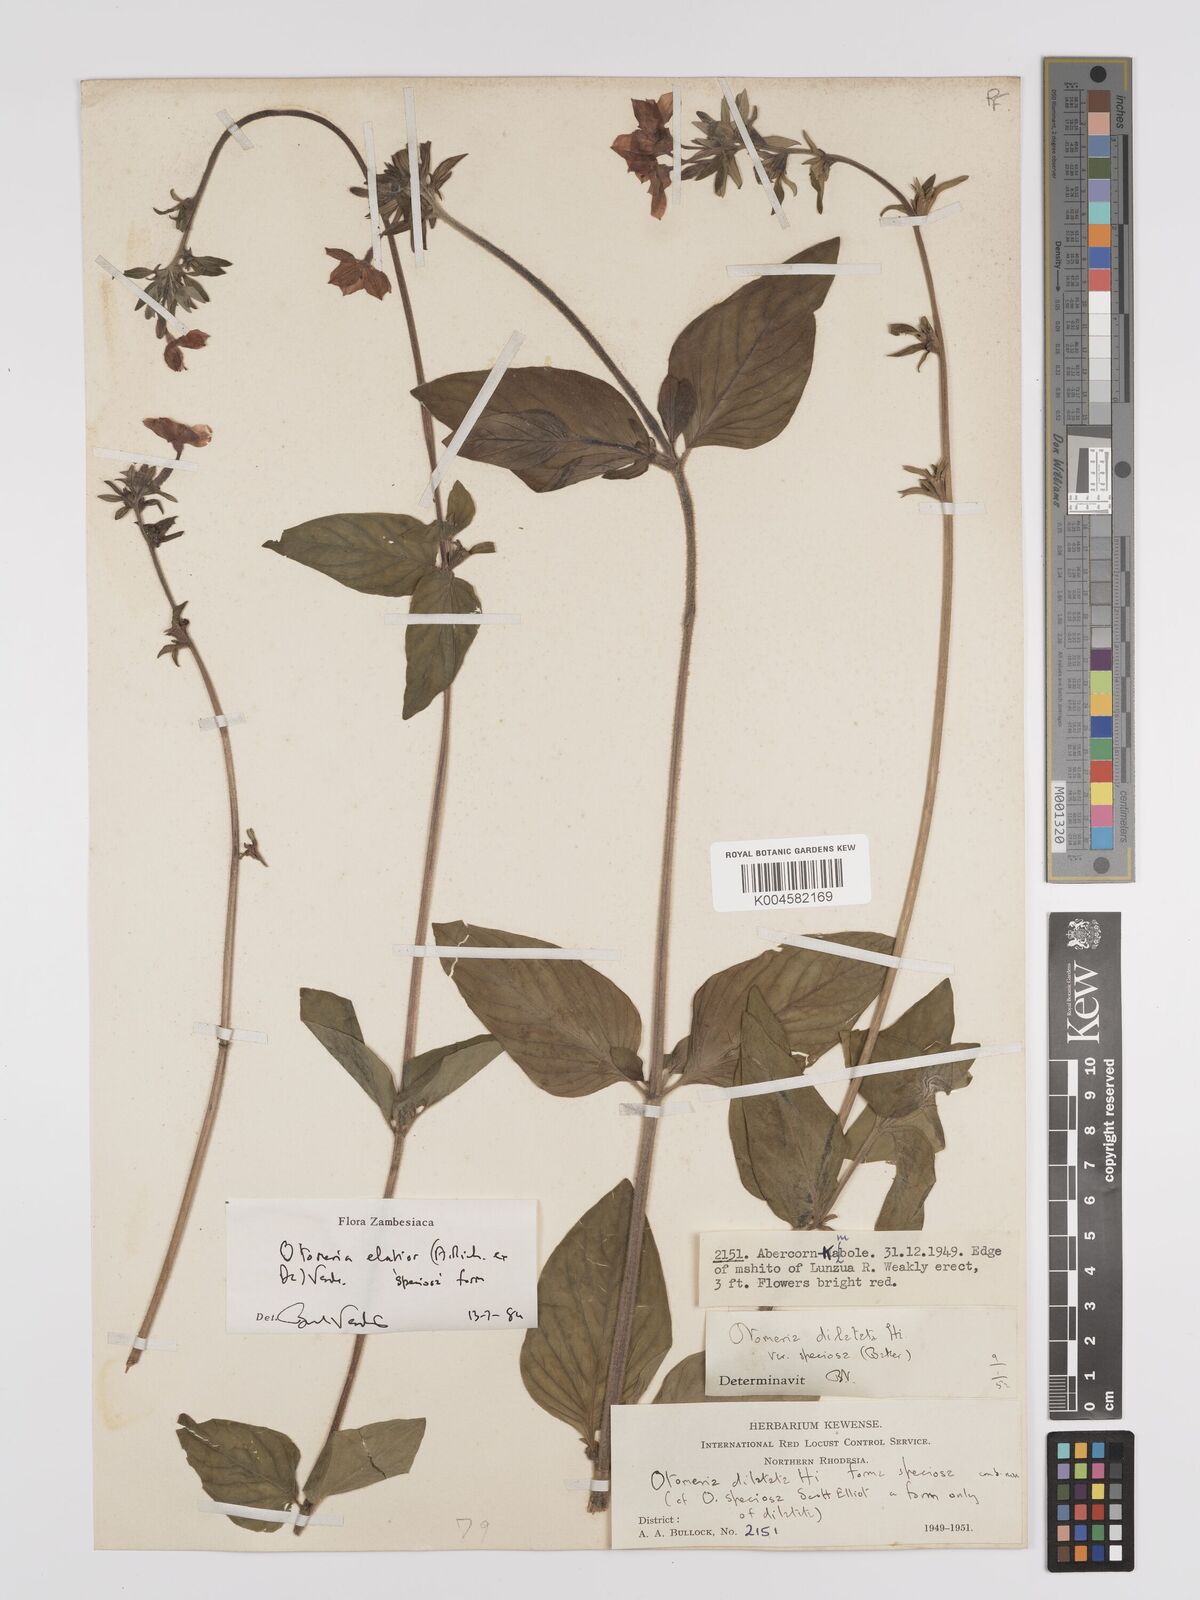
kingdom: Plantae
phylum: Tracheophyta
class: Magnoliopsida
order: Gentianales
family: Rubiaceae
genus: Otomeria
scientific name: Otomeria elatior
